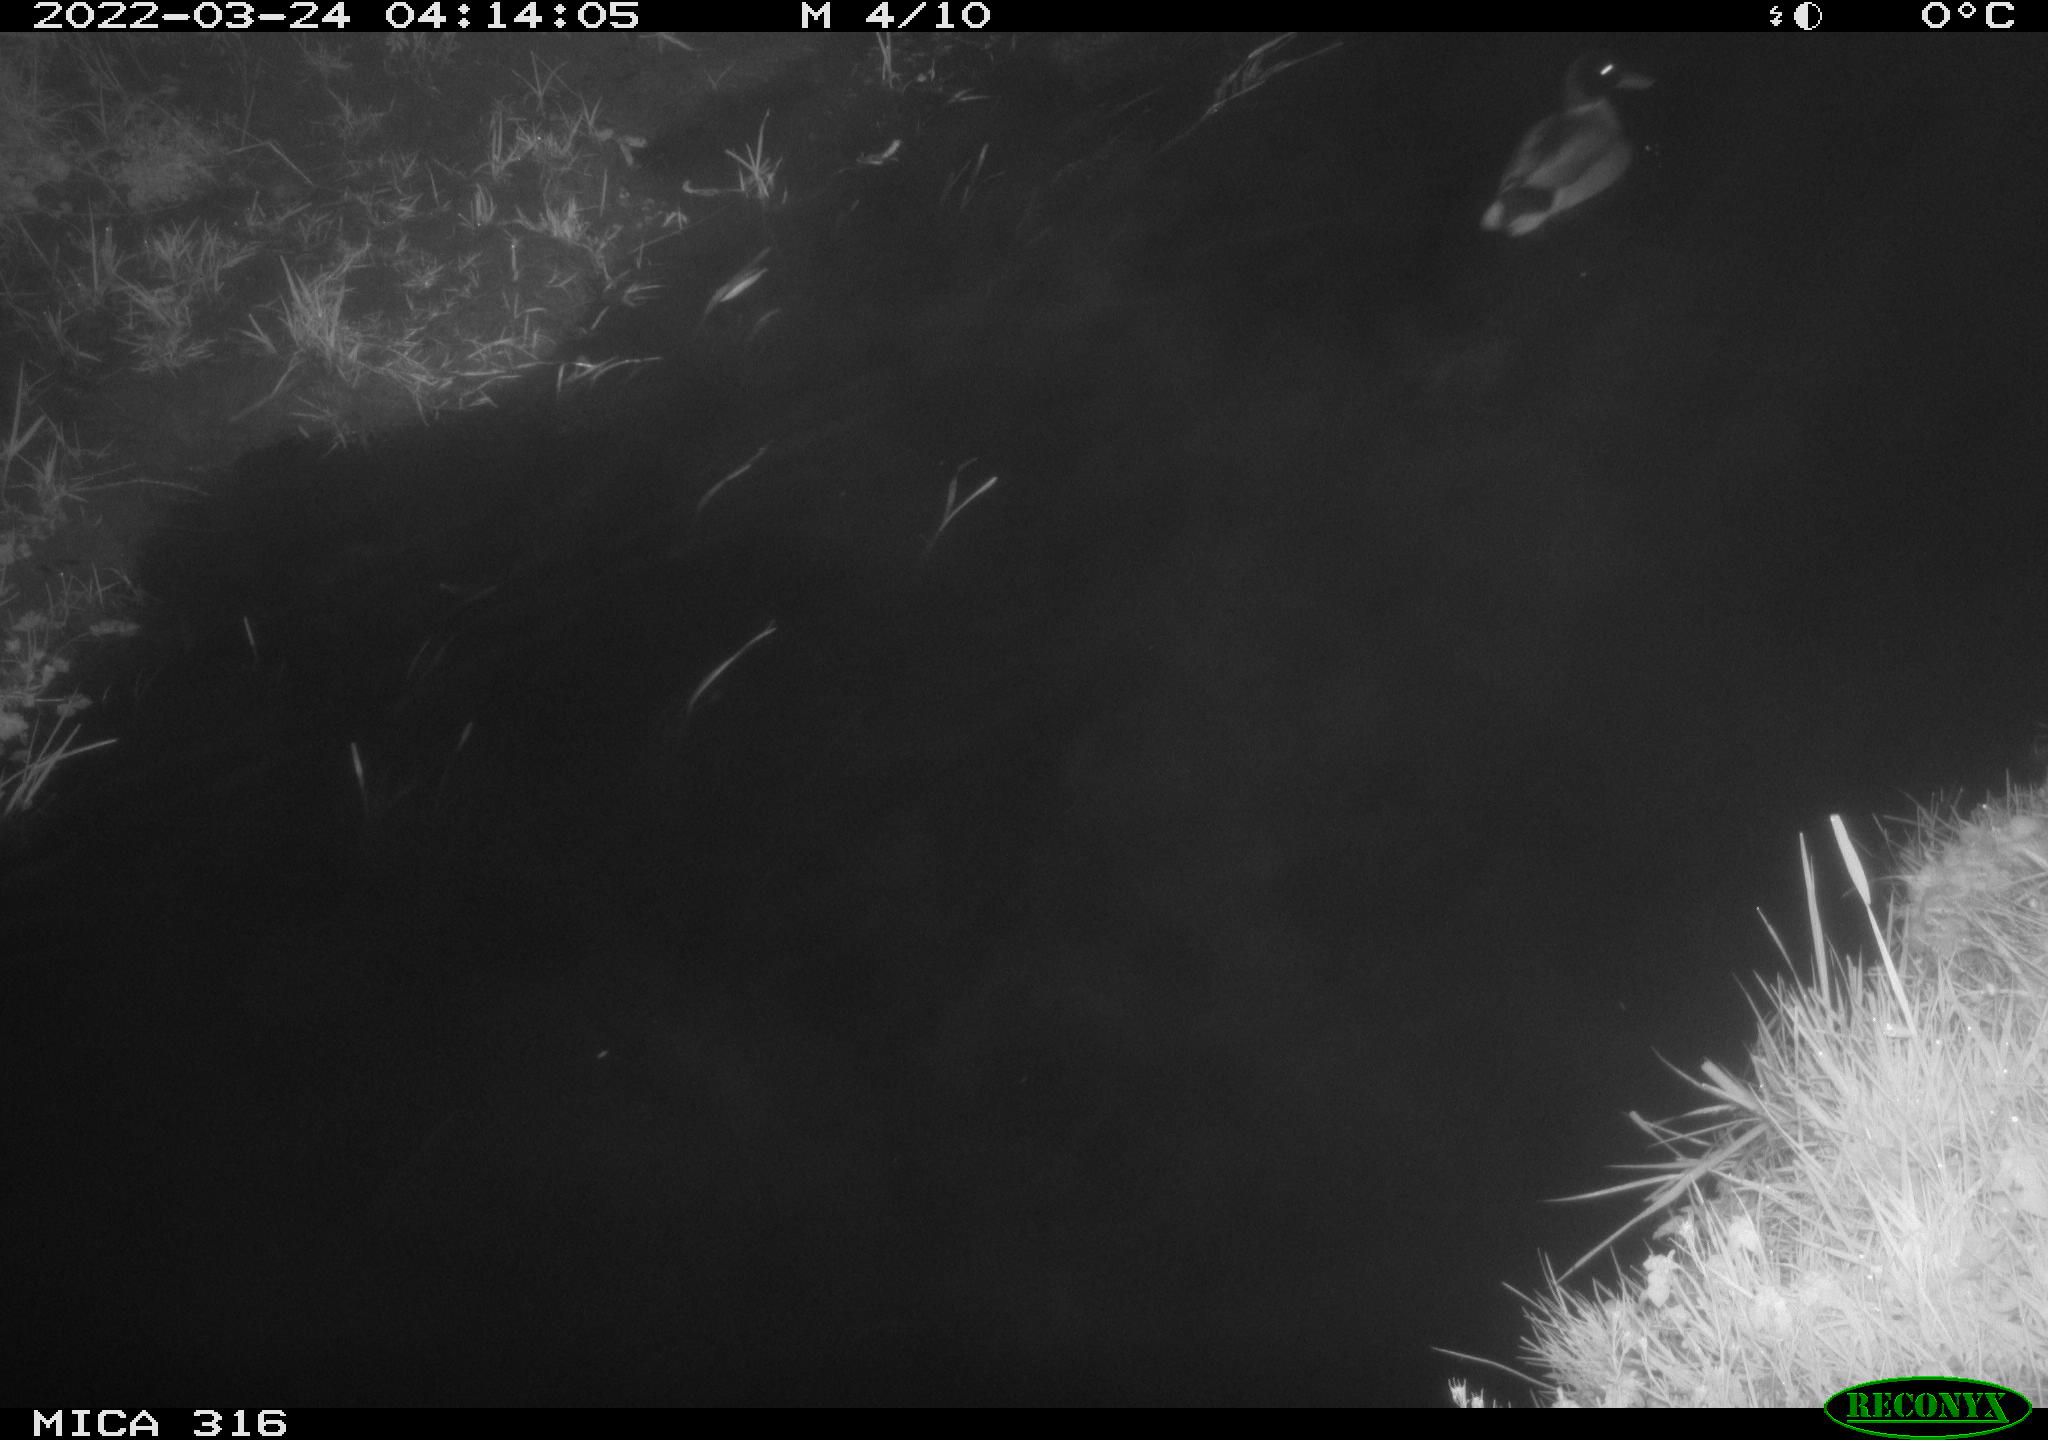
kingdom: Animalia
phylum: Chordata
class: Aves
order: Anseriformes
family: Anatidae
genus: Anas
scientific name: Anas platyrhynchos
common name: Mallard
